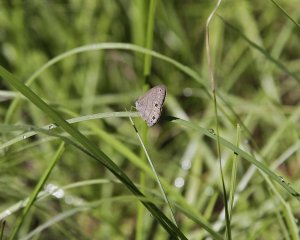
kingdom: Animalia
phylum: Arthropoda
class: Insecta
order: Lepidoptera
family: Nymphalidae
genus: Hermeuptychia
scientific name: Hermeuptychia hermes
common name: Carolina Satyr
